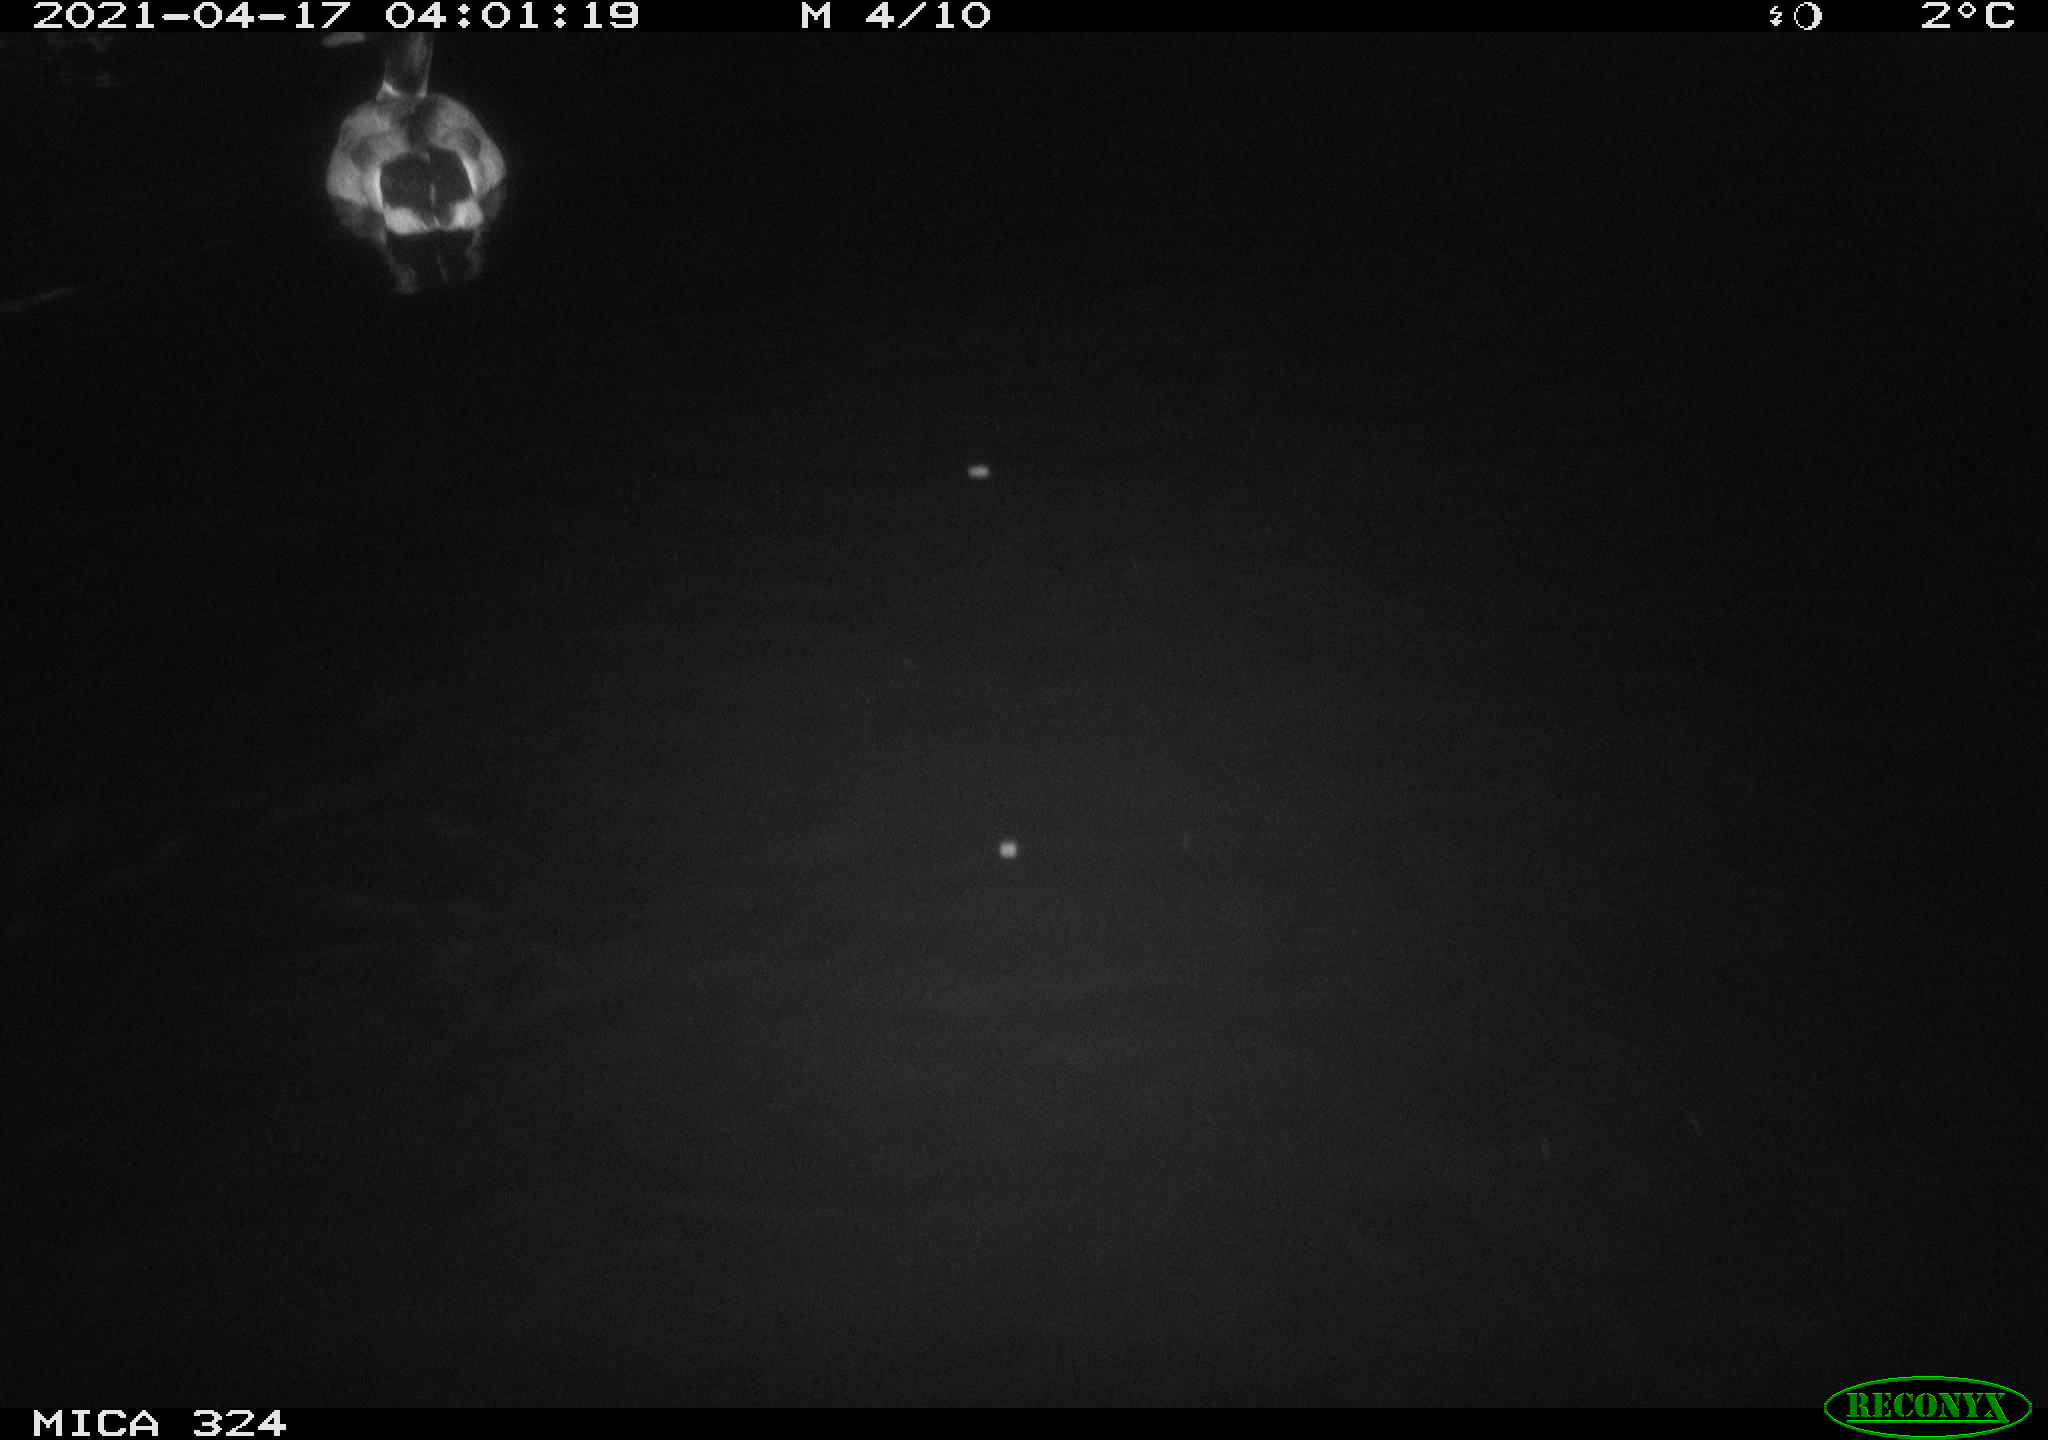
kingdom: Animalia
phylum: Chordata
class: Aves
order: Anseriformes
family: Anatidae
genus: Anas
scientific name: Anas platyrhynchos
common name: Mallard
